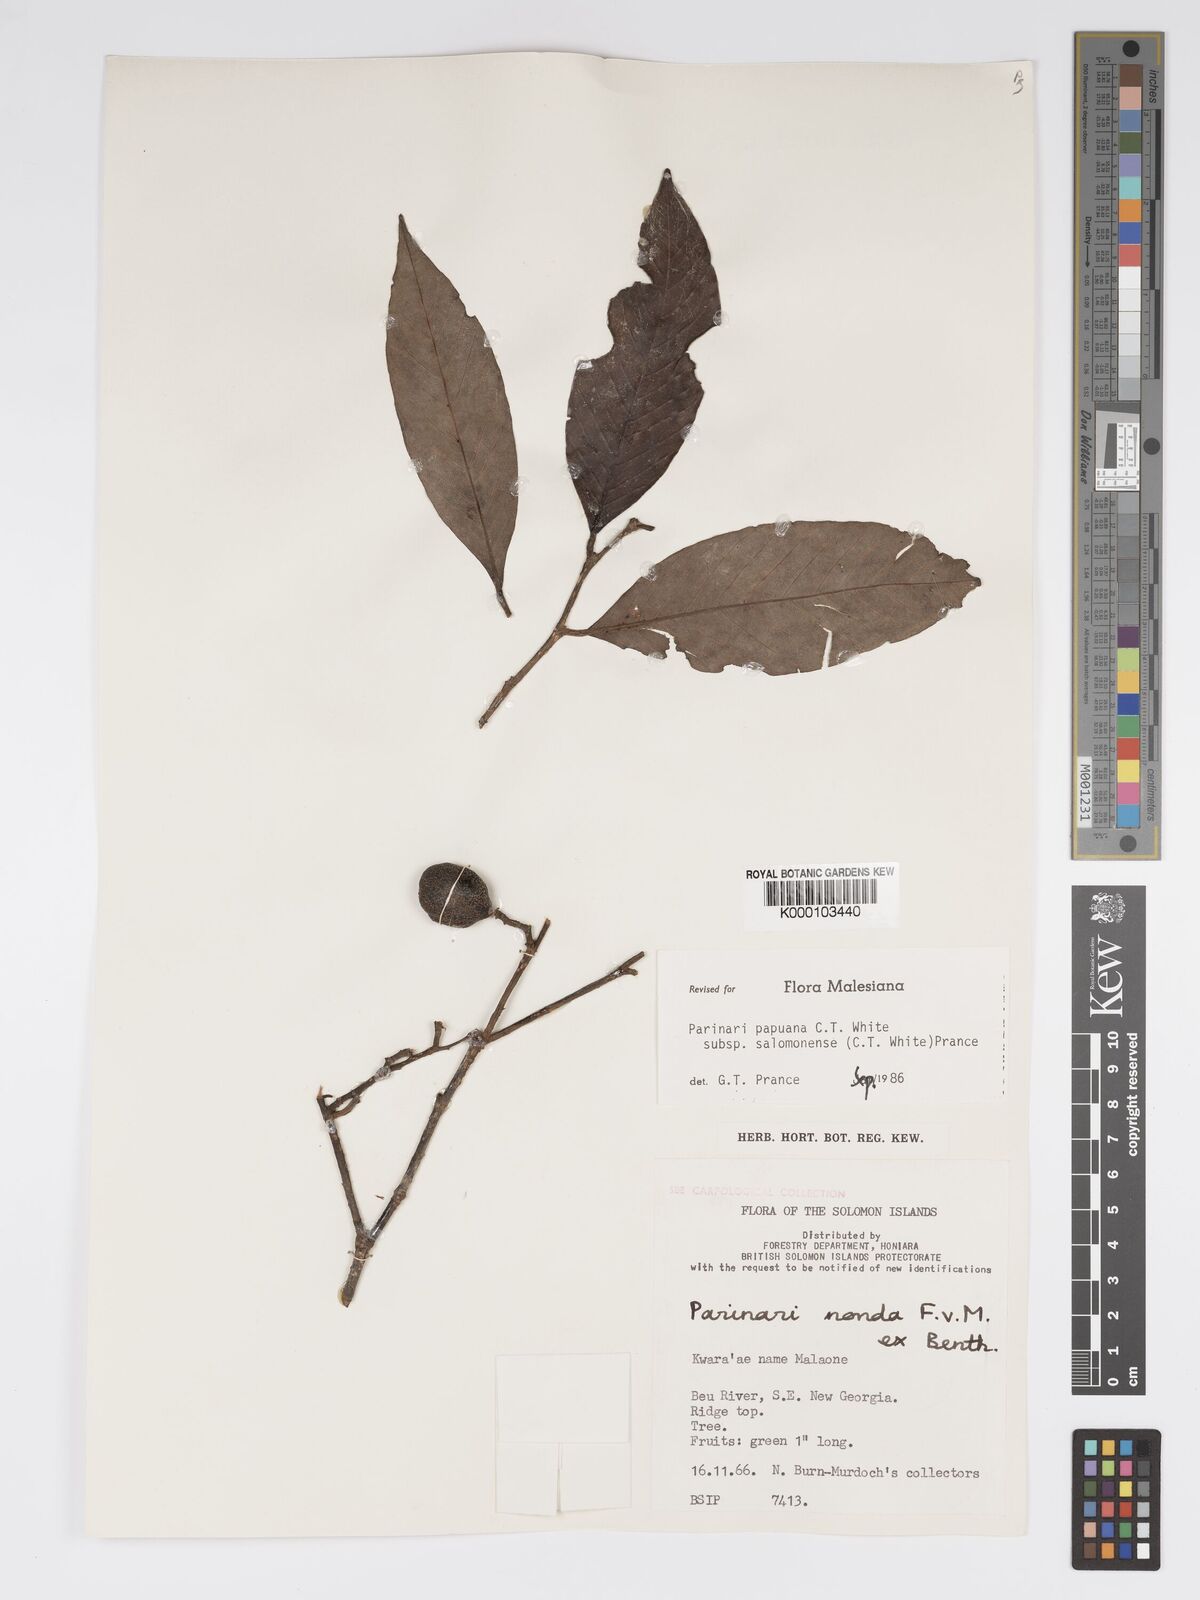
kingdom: Plantae
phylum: Tracheophyta
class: Magnoliopsida
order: Malpighiales
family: Chrysobalanaceae
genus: Parinari
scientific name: Parinari papuana
